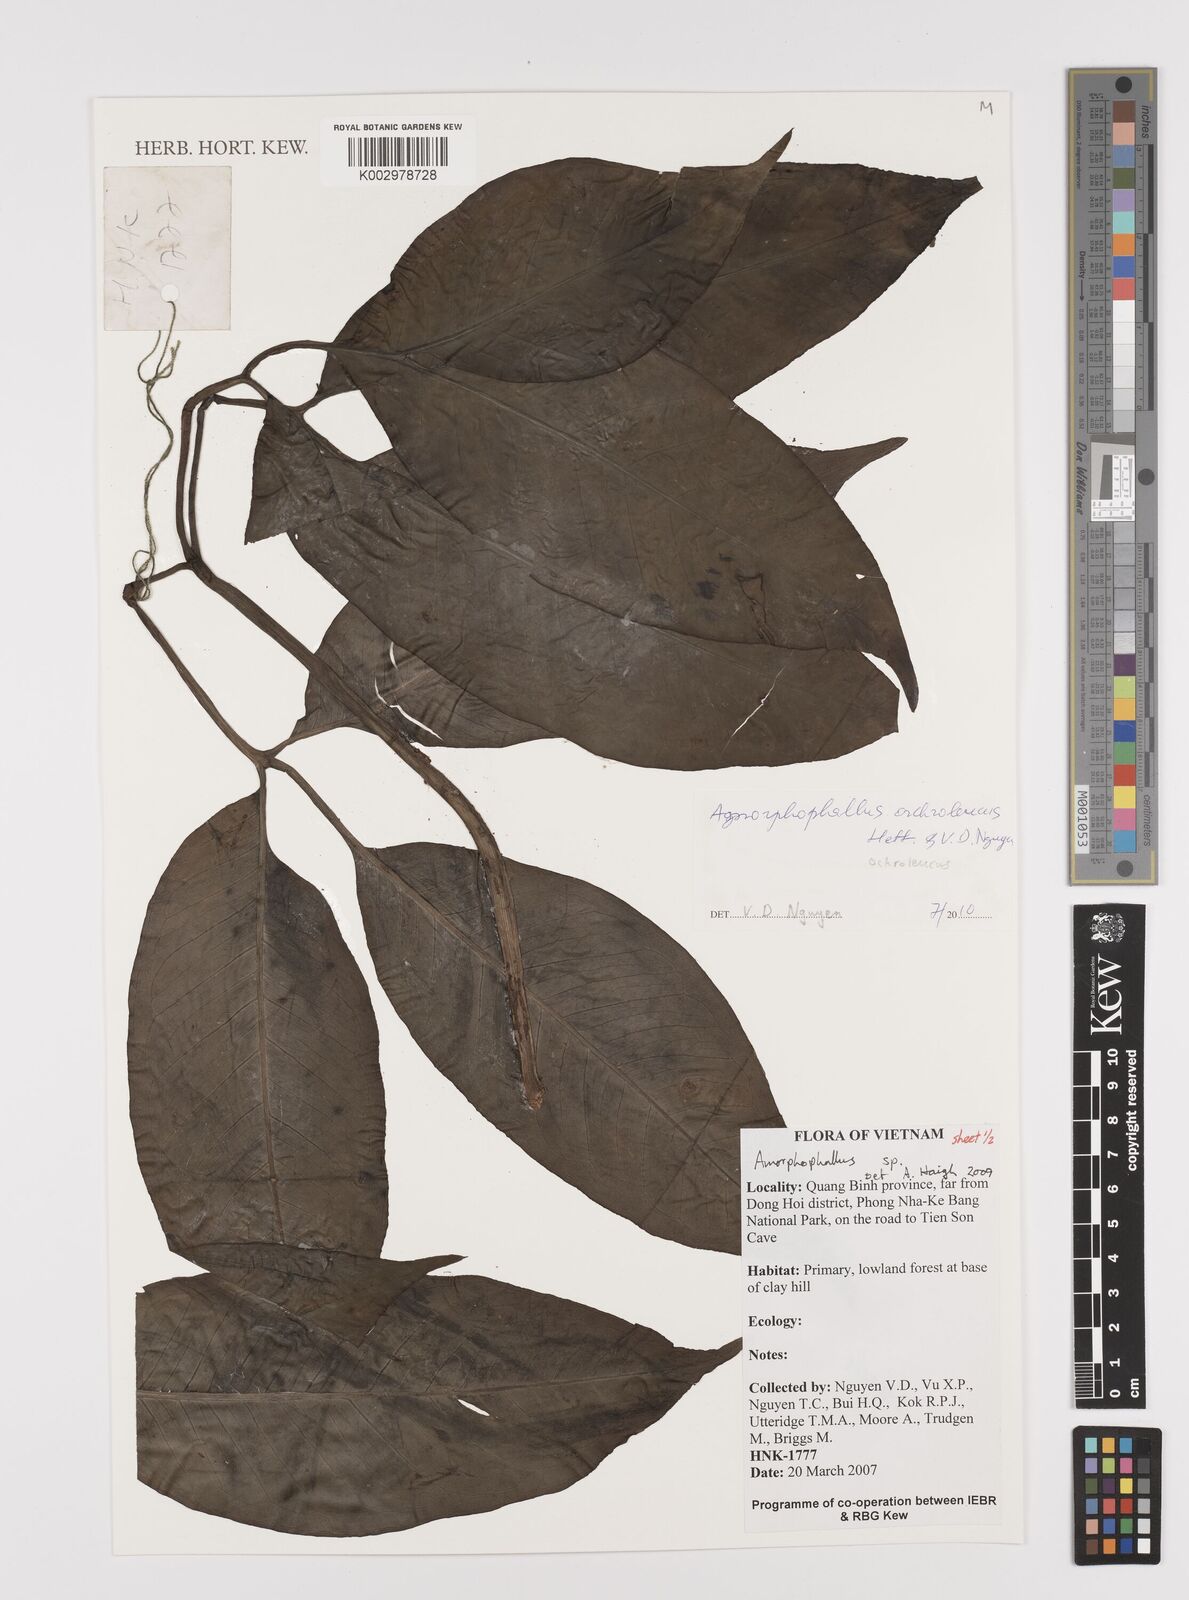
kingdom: Plantae
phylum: Tracheophyta
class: Liliopsida
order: Alismatales
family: Araceae
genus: Amorphophallus
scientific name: Amorphophallus ochroleucus
